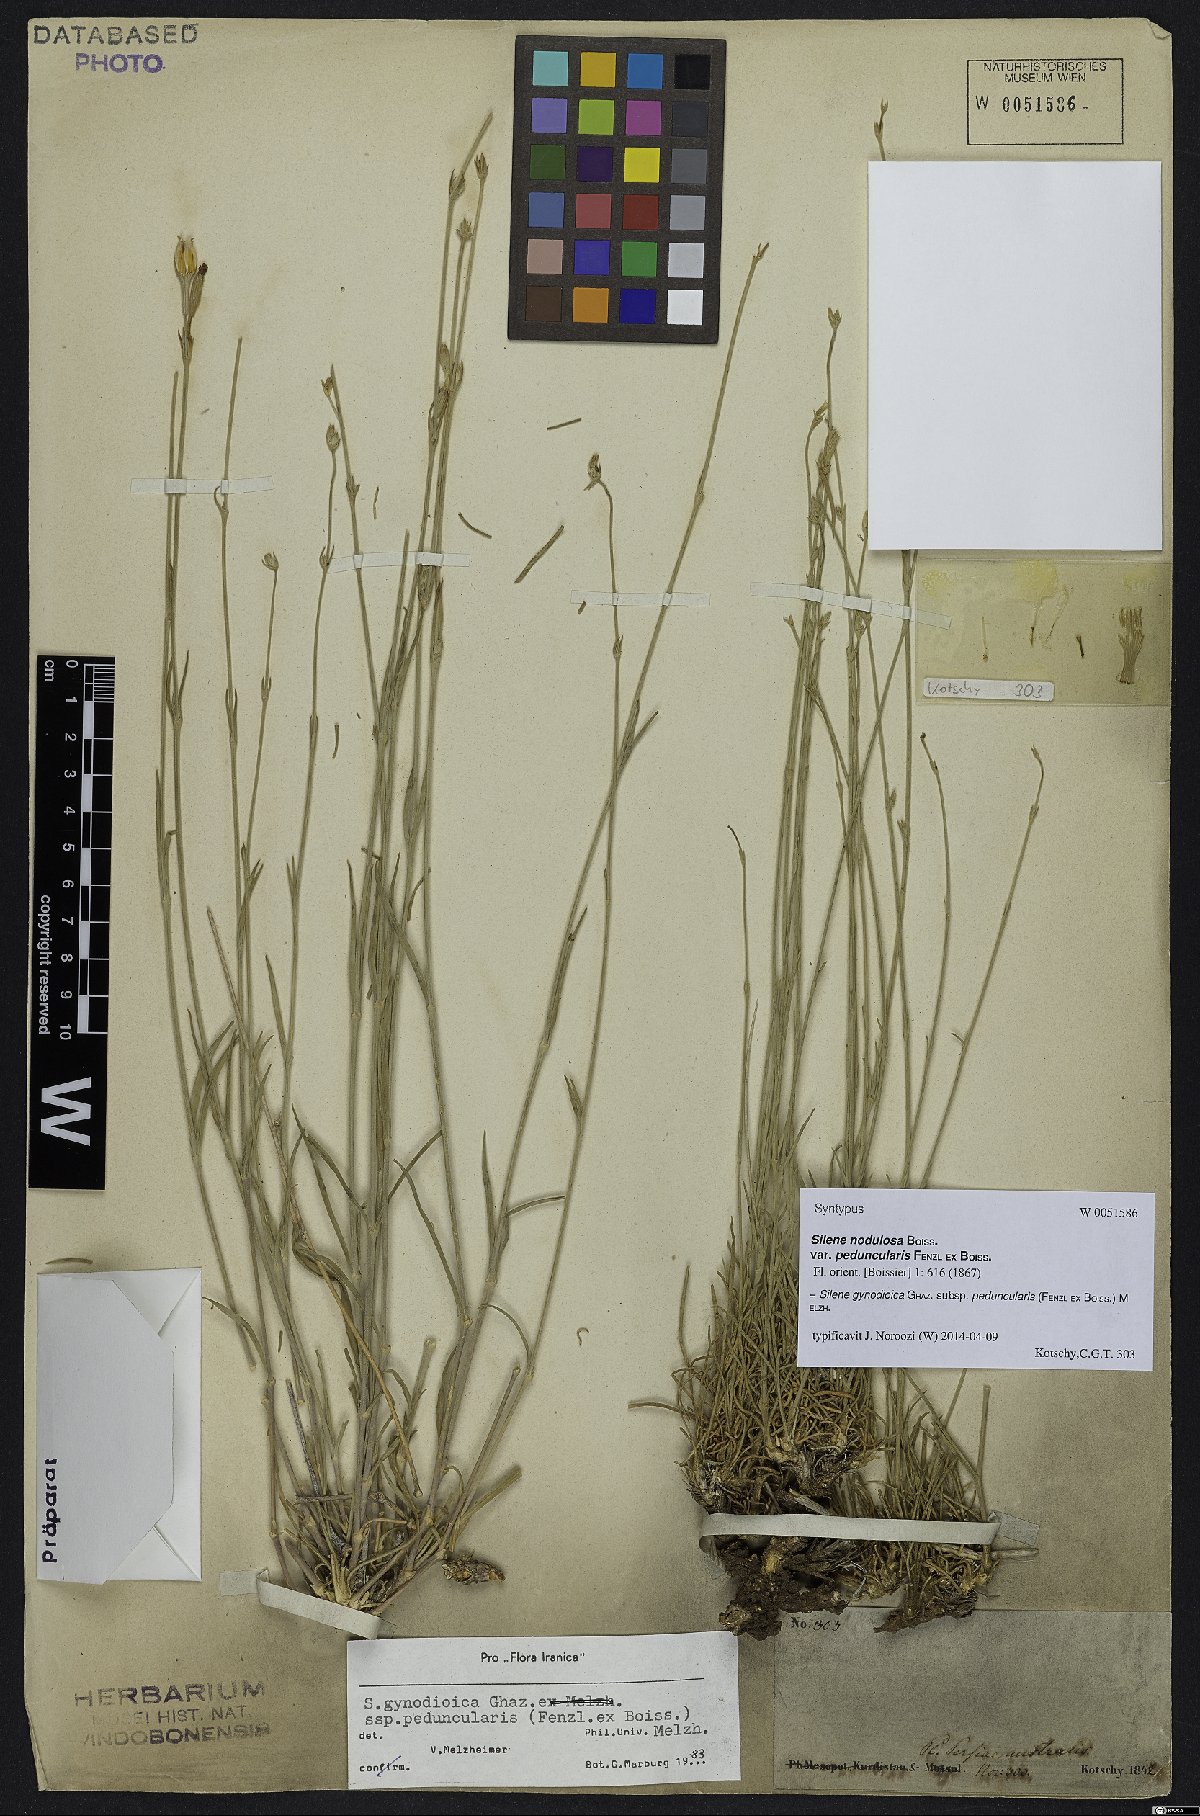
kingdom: Plantae
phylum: Tracheophyta
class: Magnoliopsida
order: Caryophyllales
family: Caryophyllaceae
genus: Silene
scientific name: Silene behboudiana
